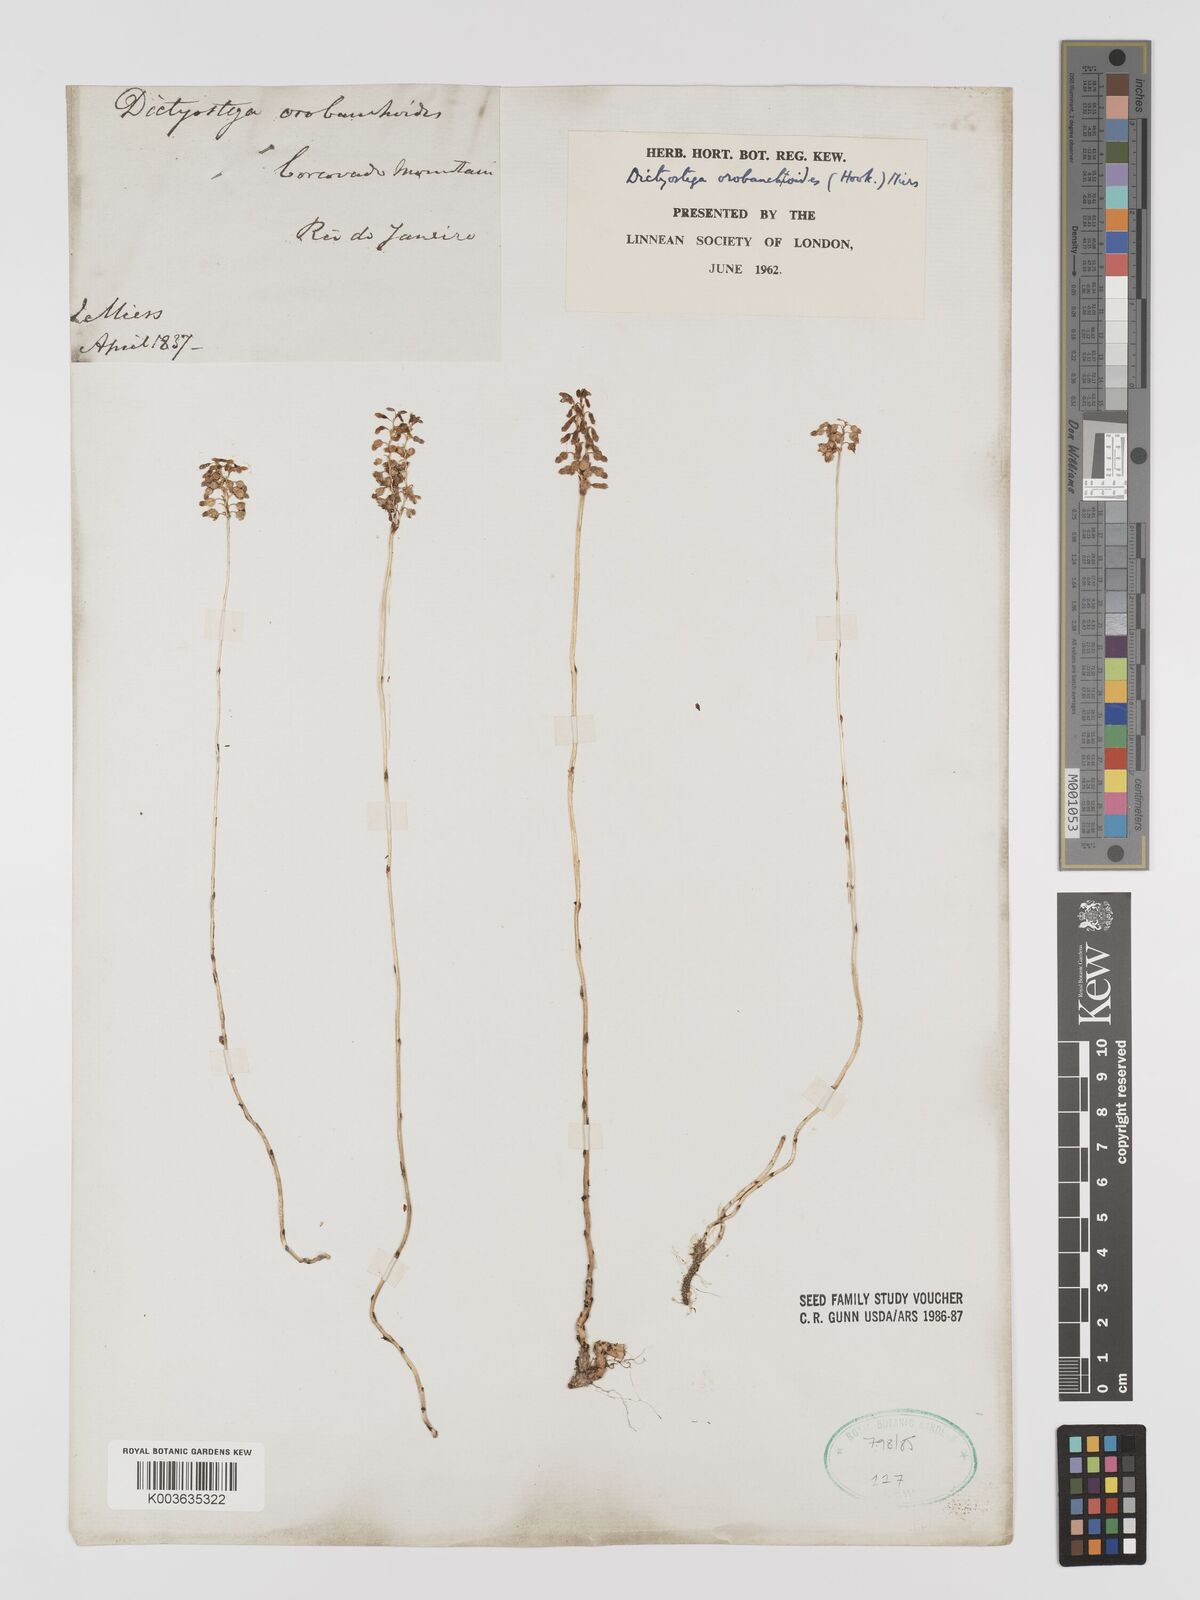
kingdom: Plantae
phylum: Tracheophyta
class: Liliopsida
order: Dioscoreales
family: Burmanniaceae
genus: Dictyostega
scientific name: Dictyostega orobanchoides
